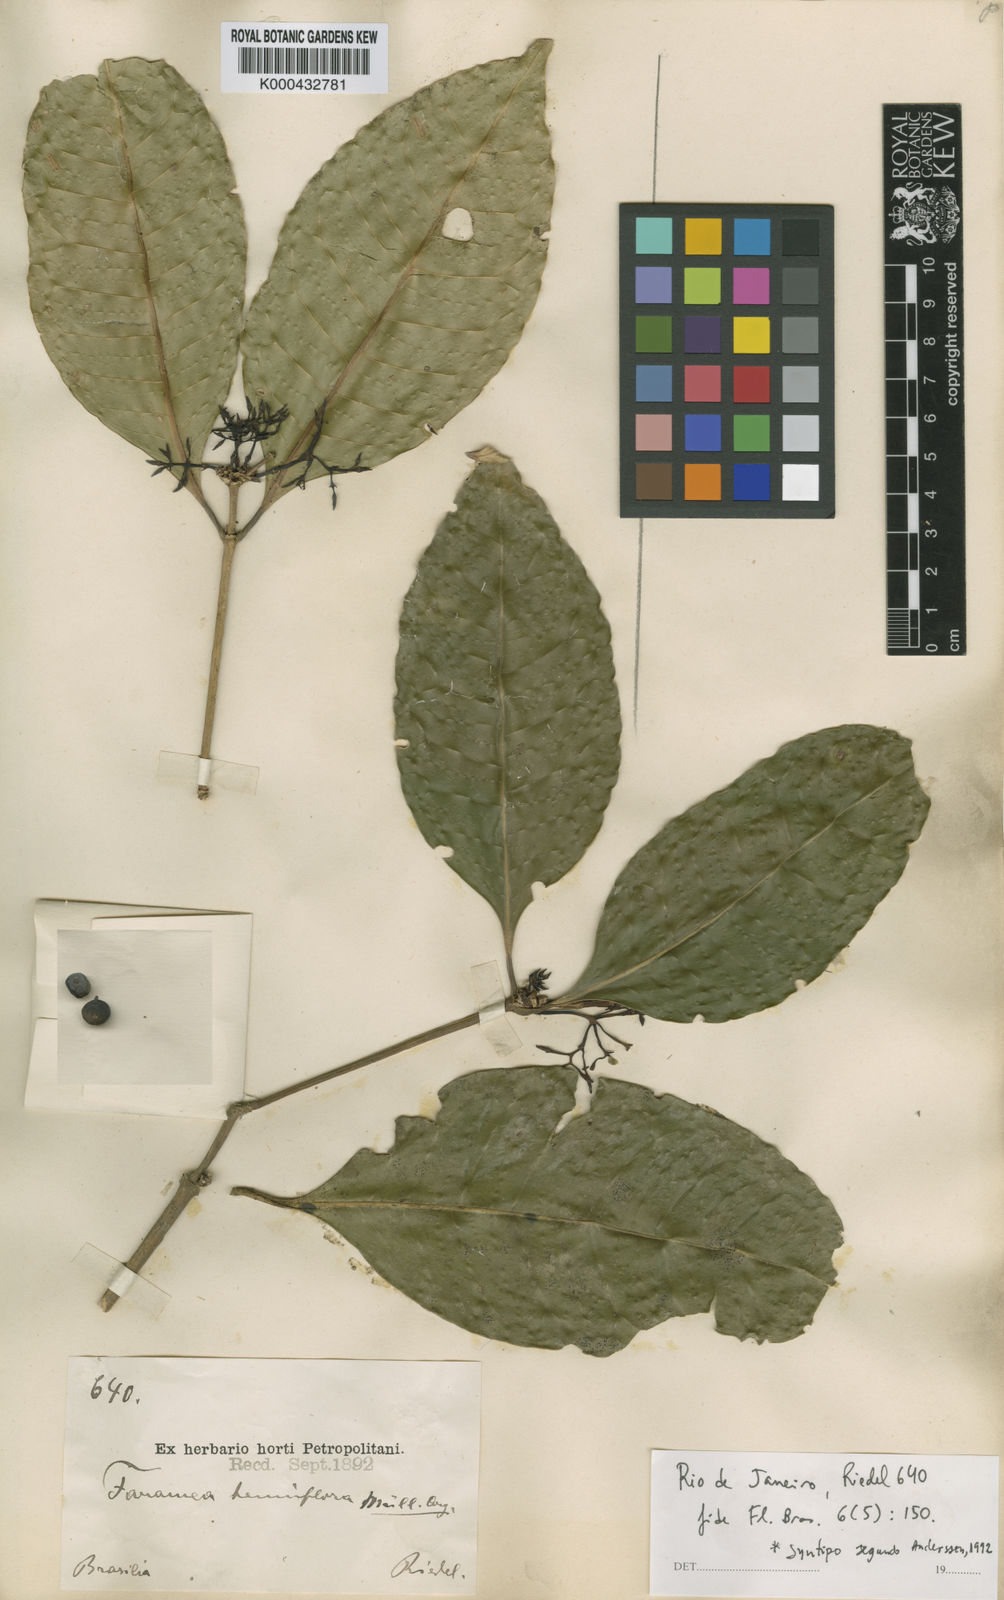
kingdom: Plantae
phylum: Tracheophyta
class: Magnoliopsida
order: Gentianales
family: Rubiaceae
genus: Faramea
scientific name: Faramea
